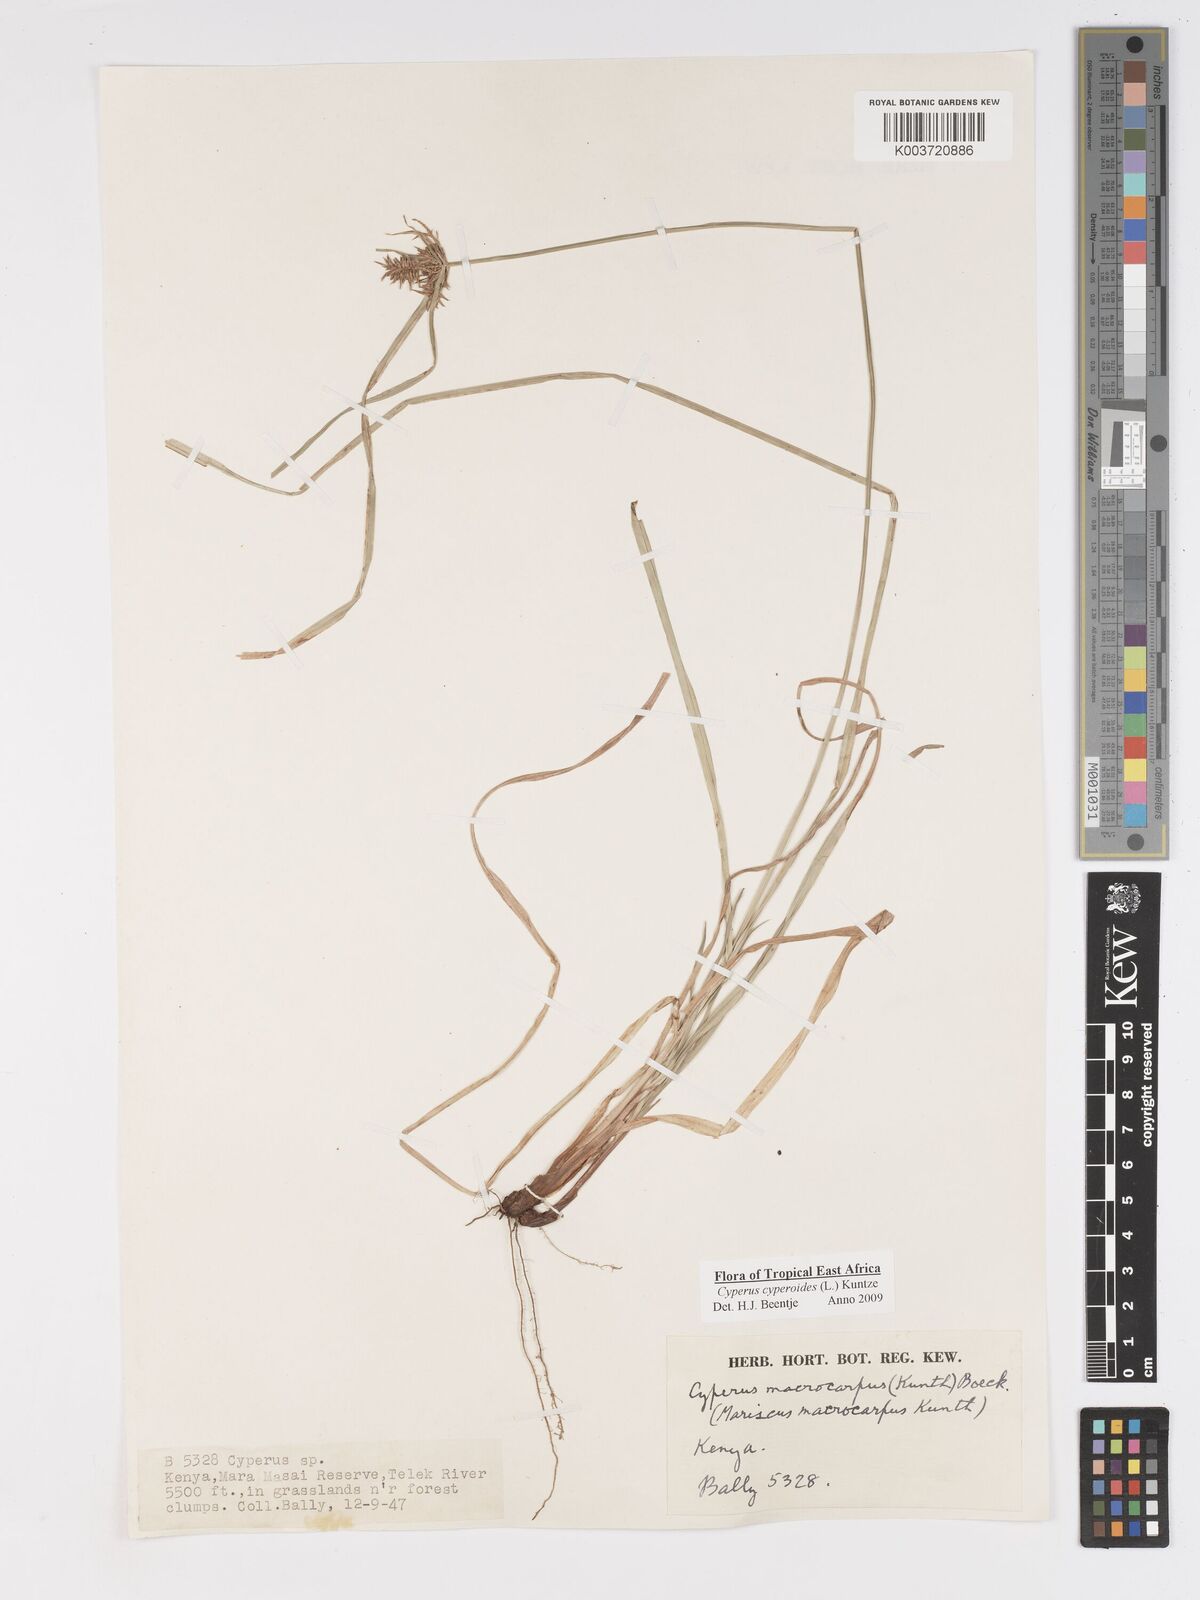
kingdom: Plantae
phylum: Tracheophyta
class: Liliopsida
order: Poales
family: Cyperaceae
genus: Cyperus
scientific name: Cyperus macrocarpus
